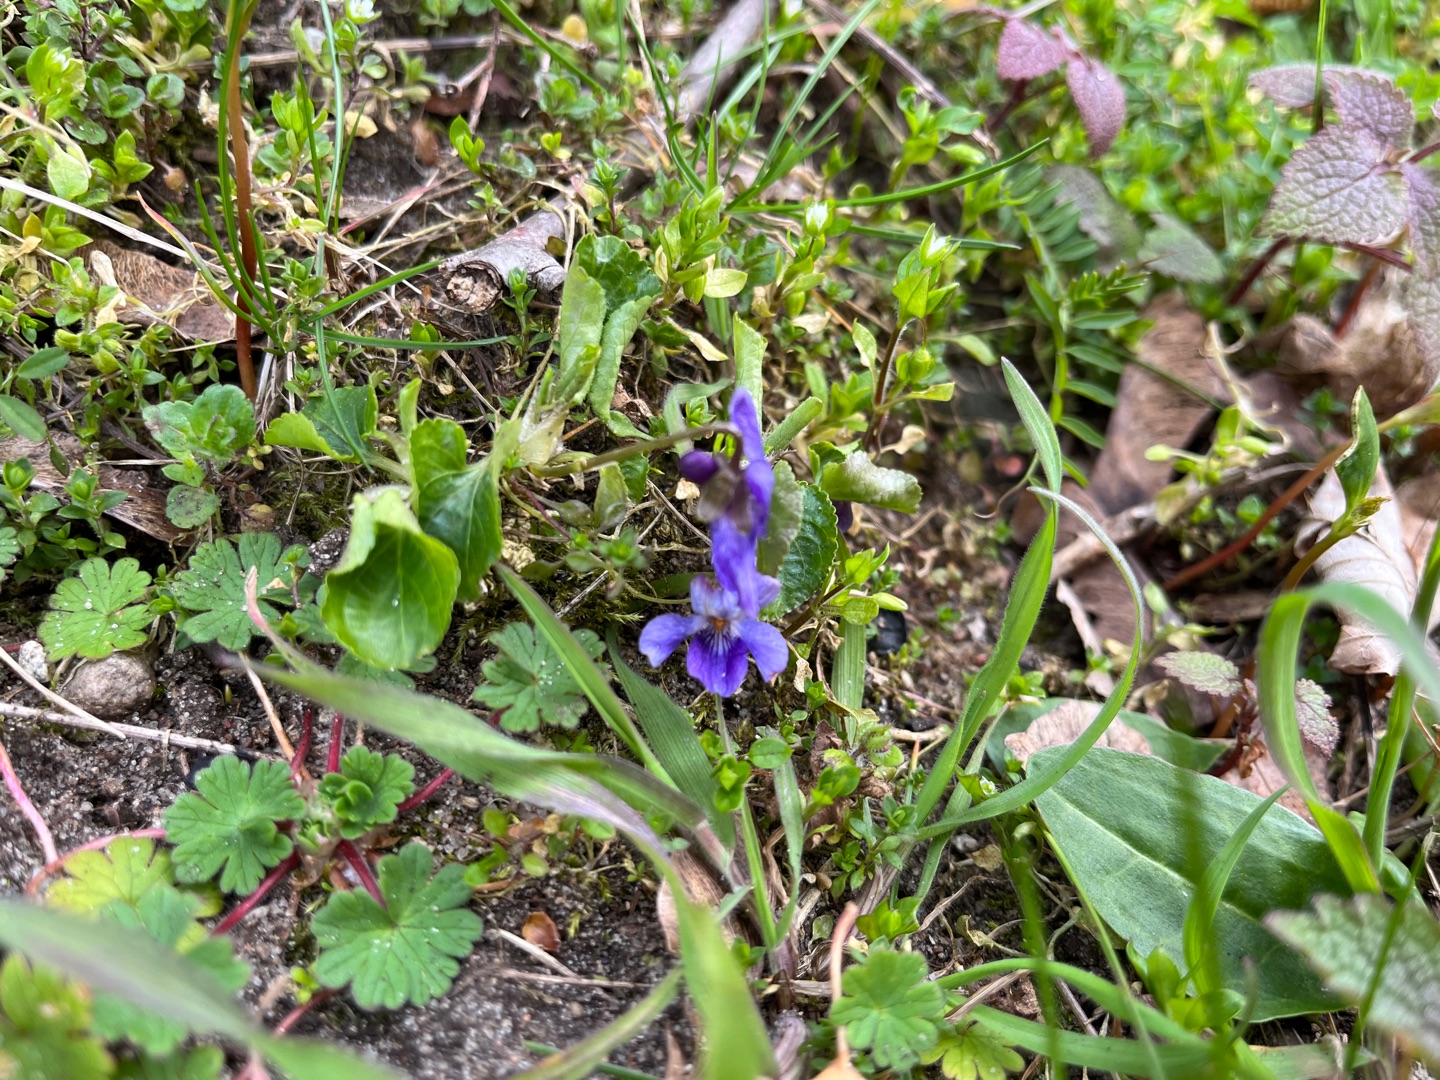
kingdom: Plantae
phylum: Tracheophyta
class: Magnoliopsida
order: Malpighiales
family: Violaceae
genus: Viola
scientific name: Viola odorata
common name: Marts-viol
